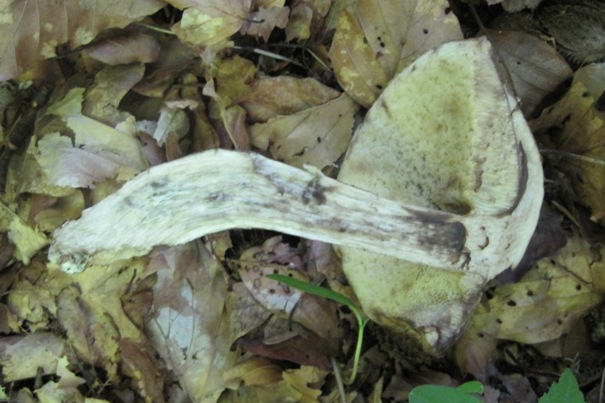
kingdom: Fungi
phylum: Basidiomycota
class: Agaricomycetes
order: Boletales
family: Boletaceae
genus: Leccinellum
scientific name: Leccinellum pseudoscabrum
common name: avnbøg-skælrørhat
